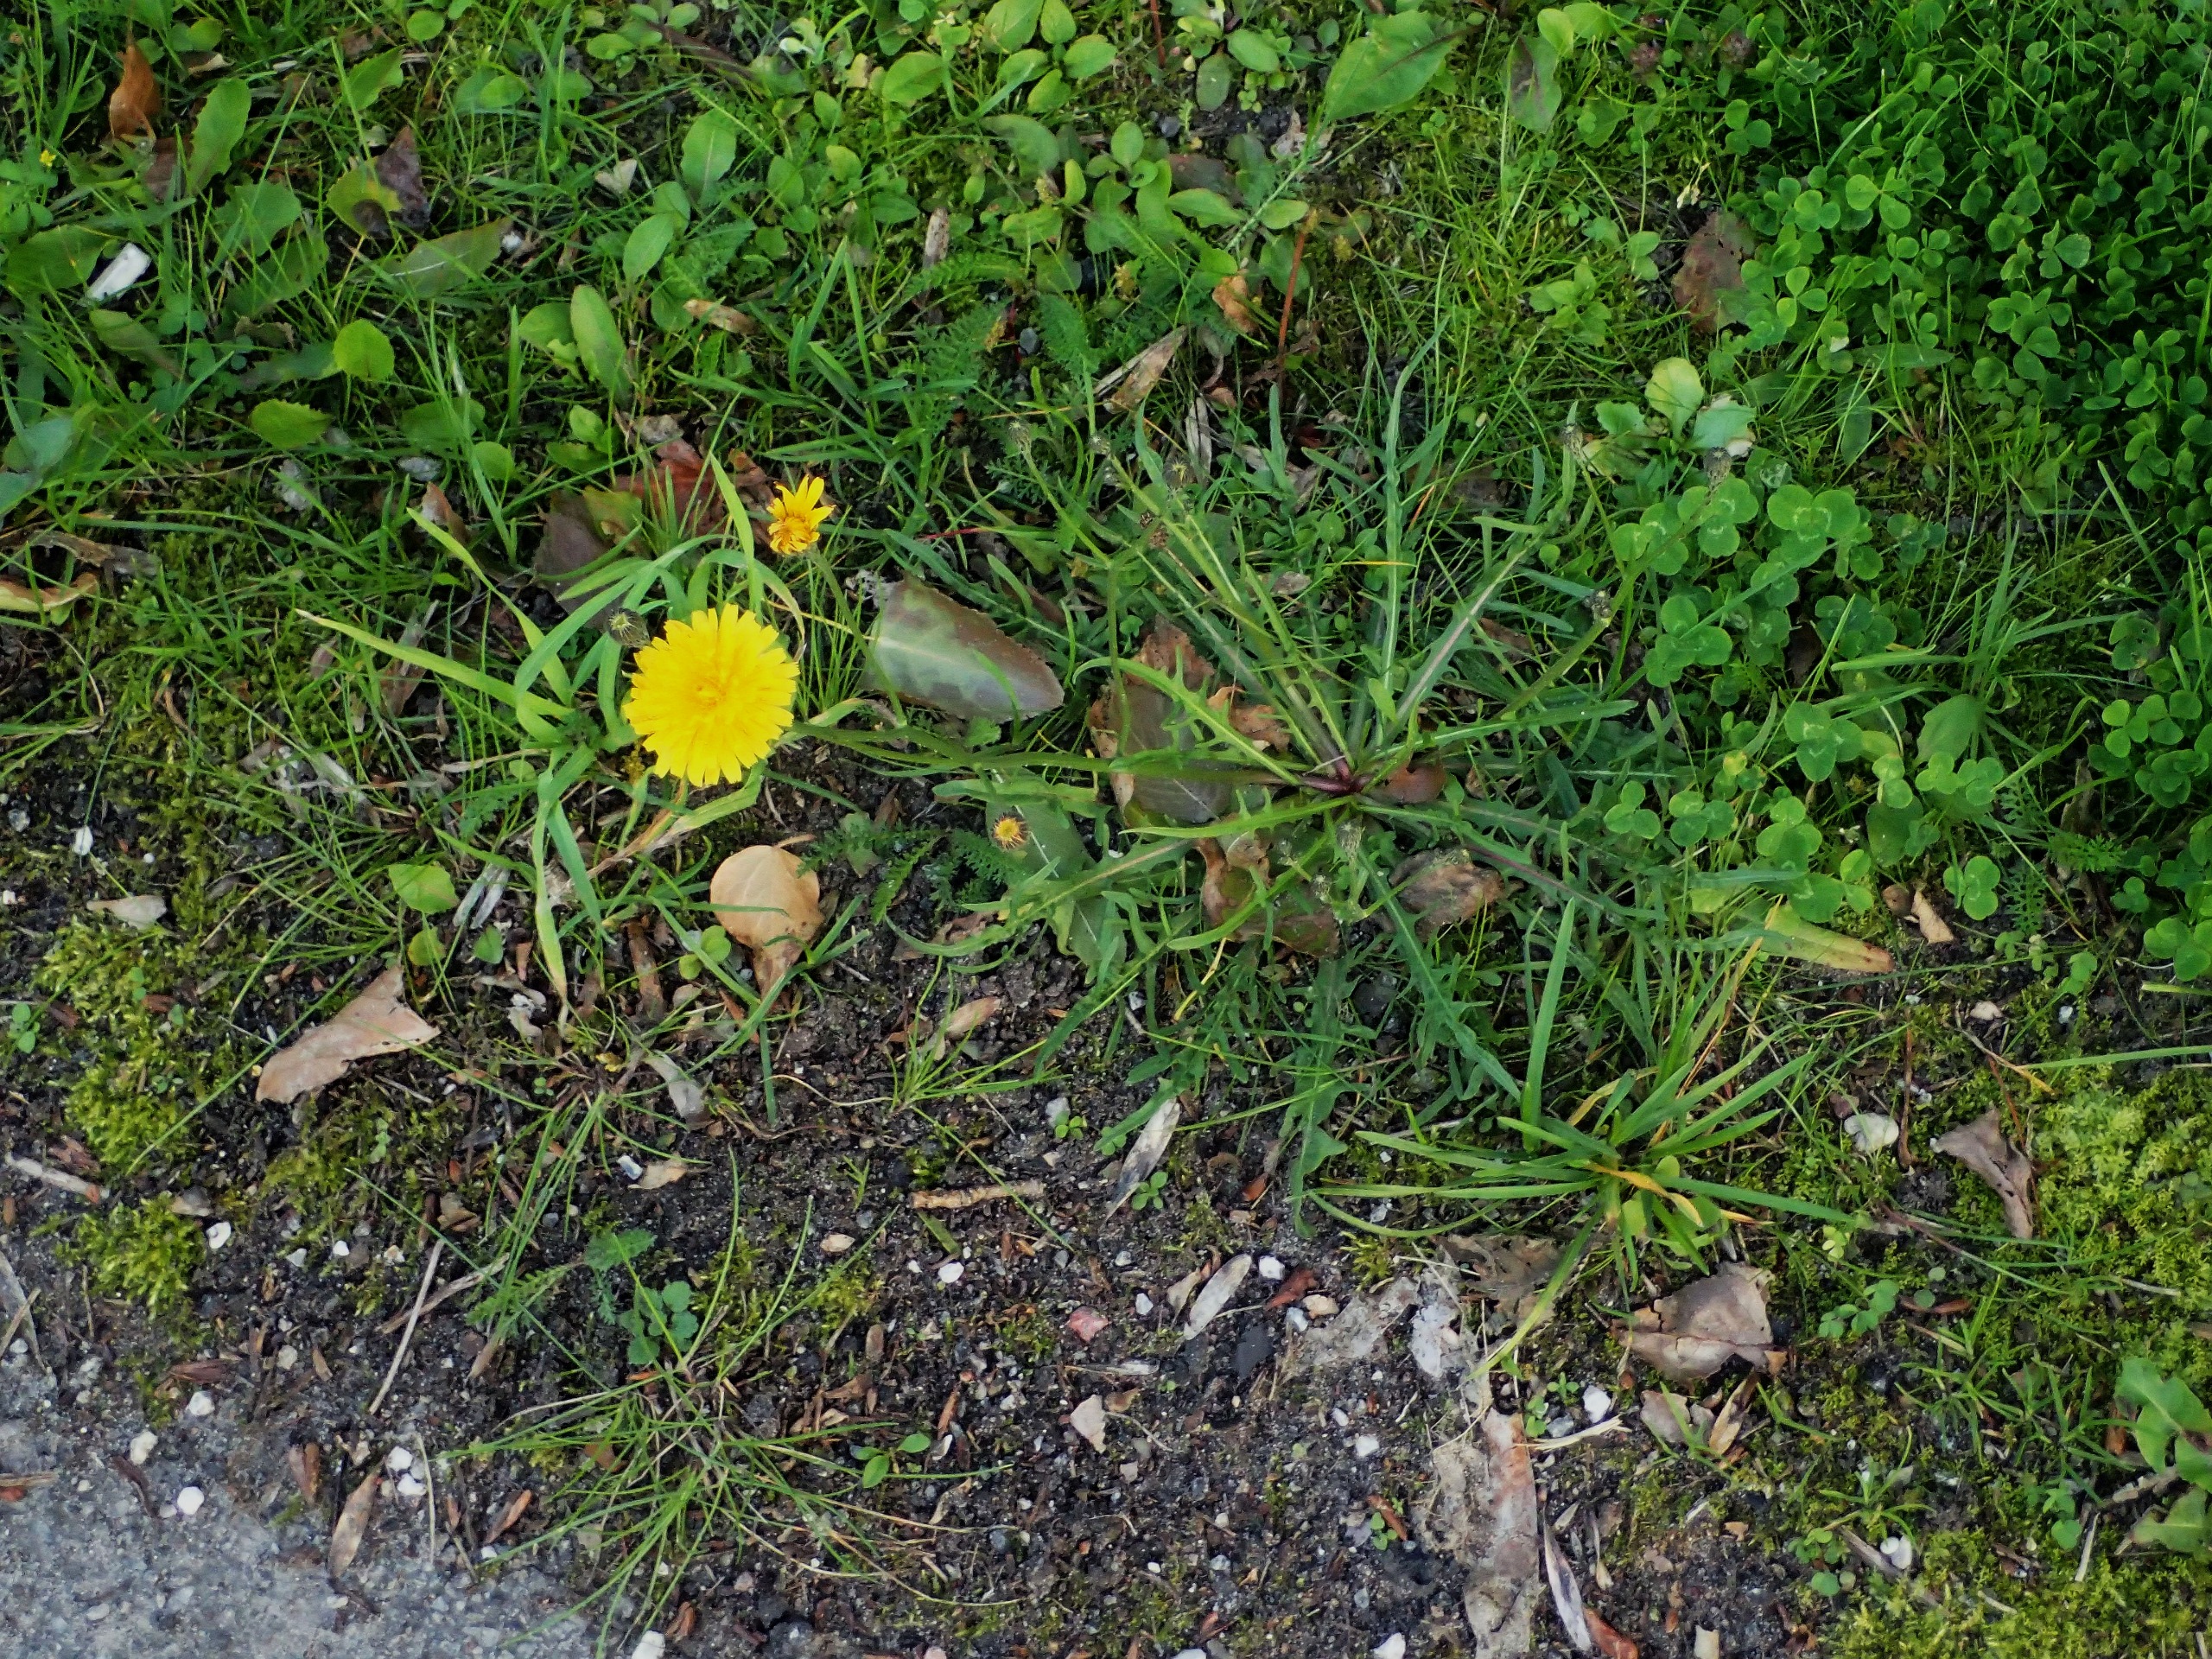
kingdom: Plantae
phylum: Tracheophyta
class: Magnoliopsida
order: Asterales
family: Asteraceae
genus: Scorzoneroides
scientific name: Scorzoneroides autumnalis
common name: Høst-borst
